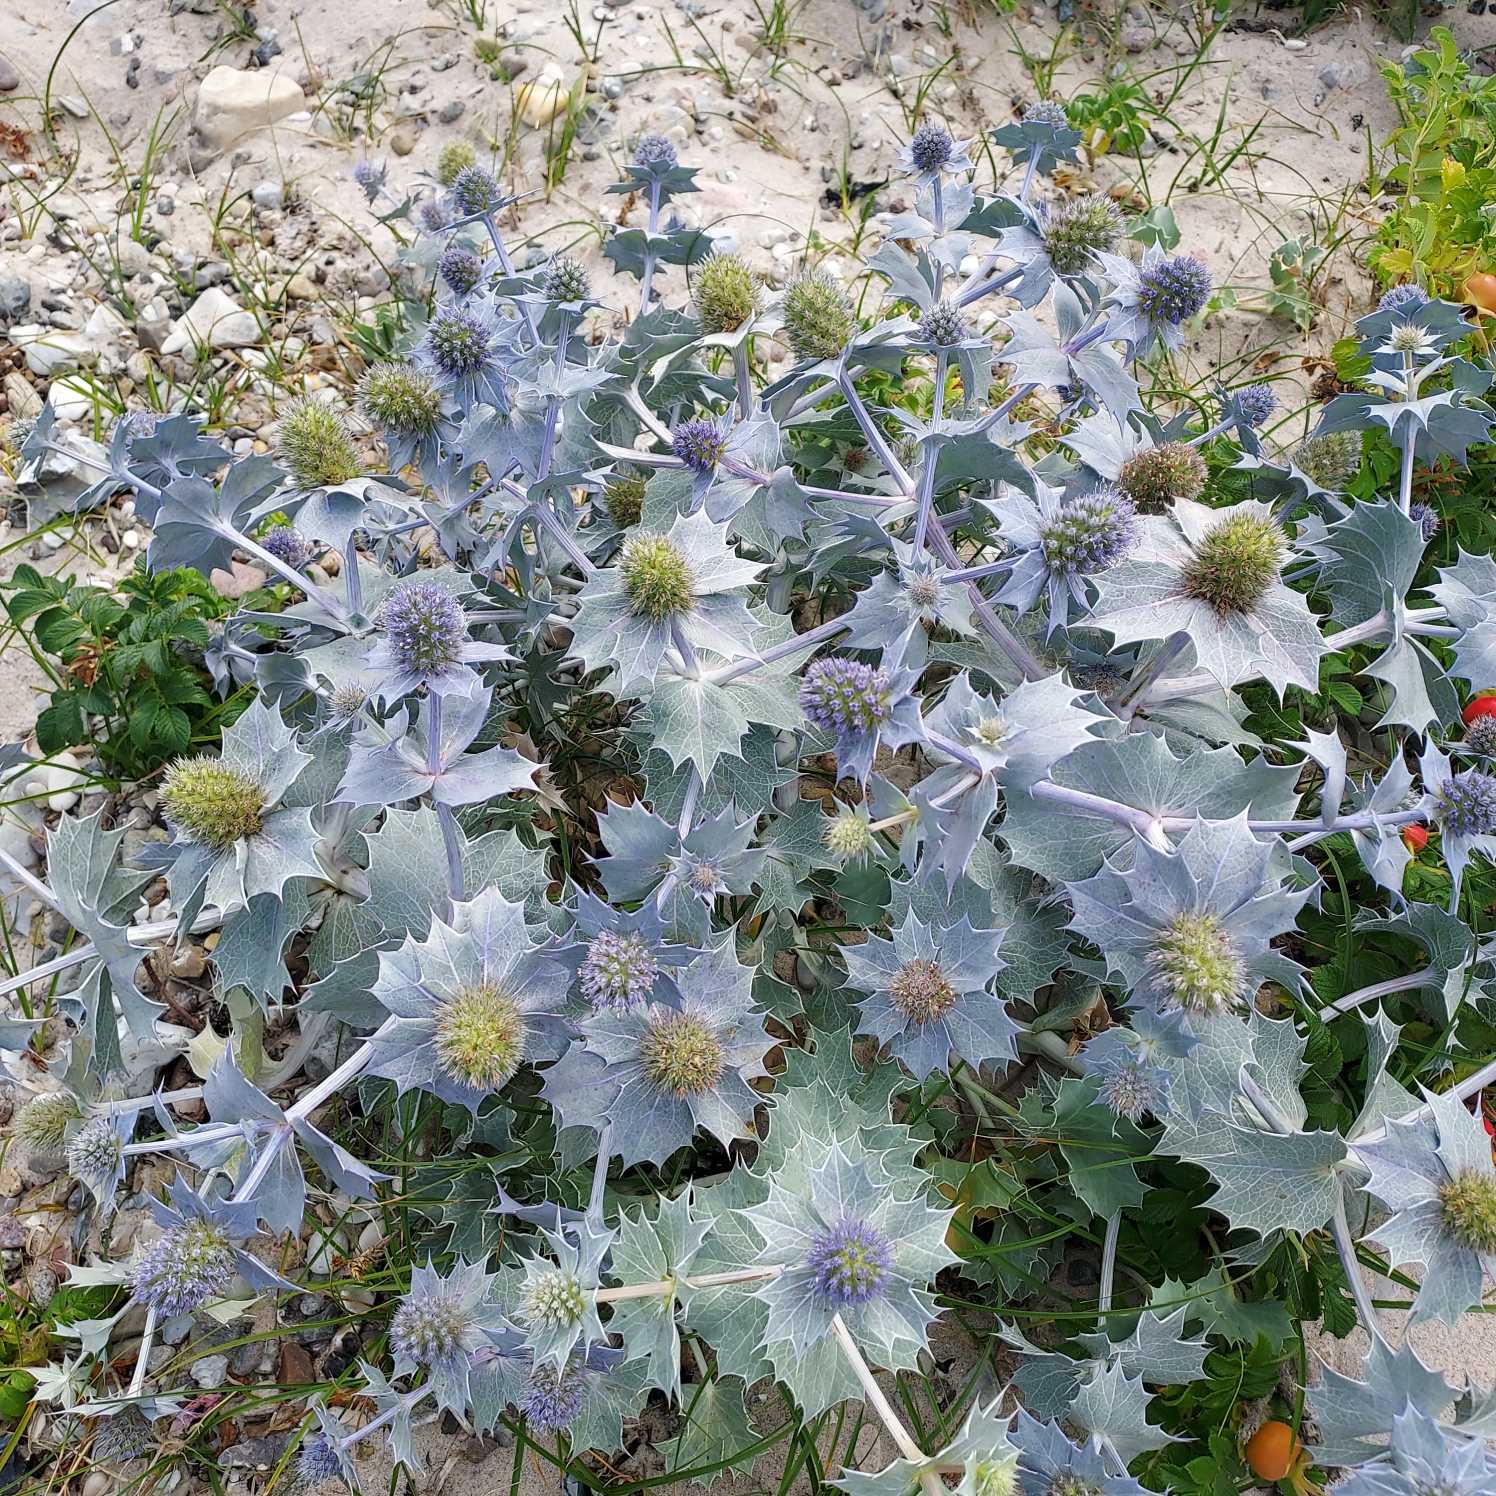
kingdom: Plantae
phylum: Tracheophyta
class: Magnoliopsida
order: Apiales
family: Apiaceae
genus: Eryngium
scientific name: Eryngium maritimum
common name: Strand-mandstro
